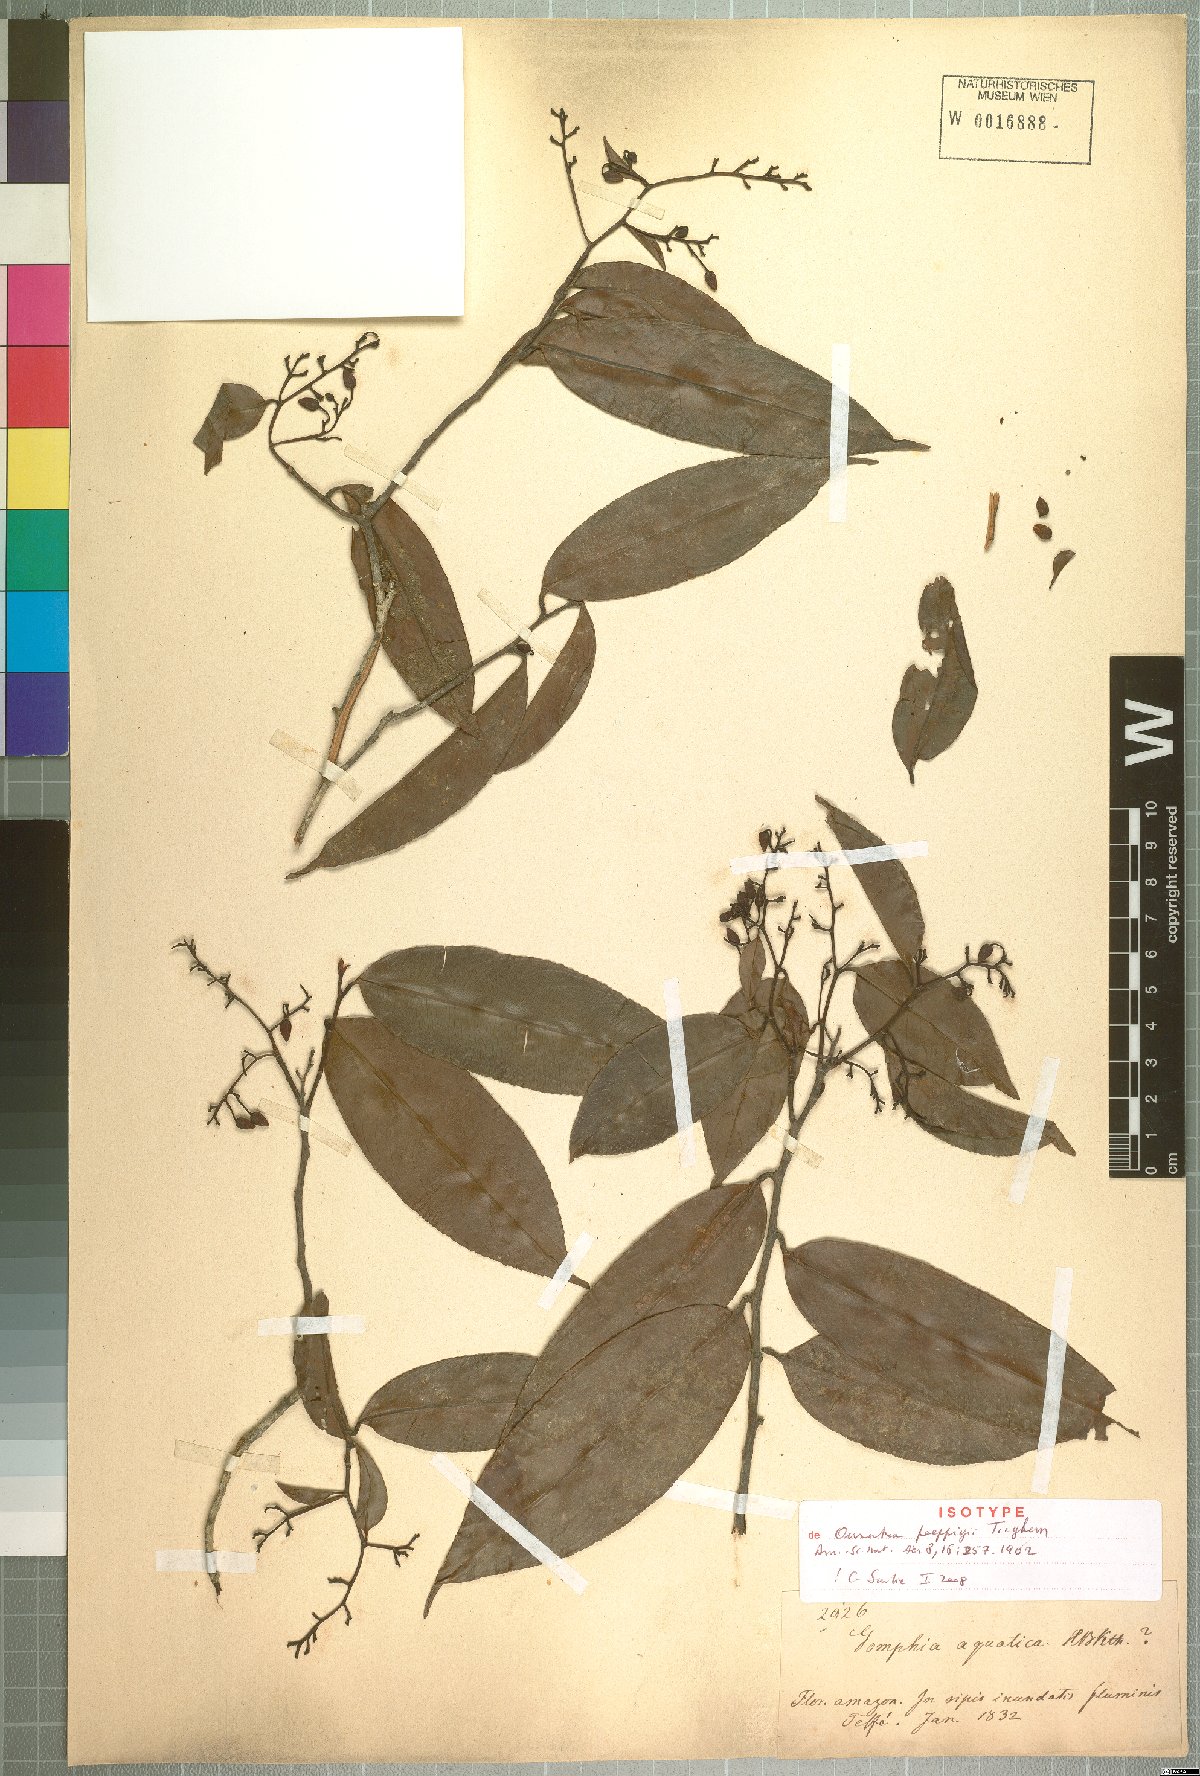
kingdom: Plantae
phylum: Tracheophyta
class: Magnoliopsida
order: Malpighiales
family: Ochnaceae
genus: Ouratea
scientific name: Ouratea poeppigii
